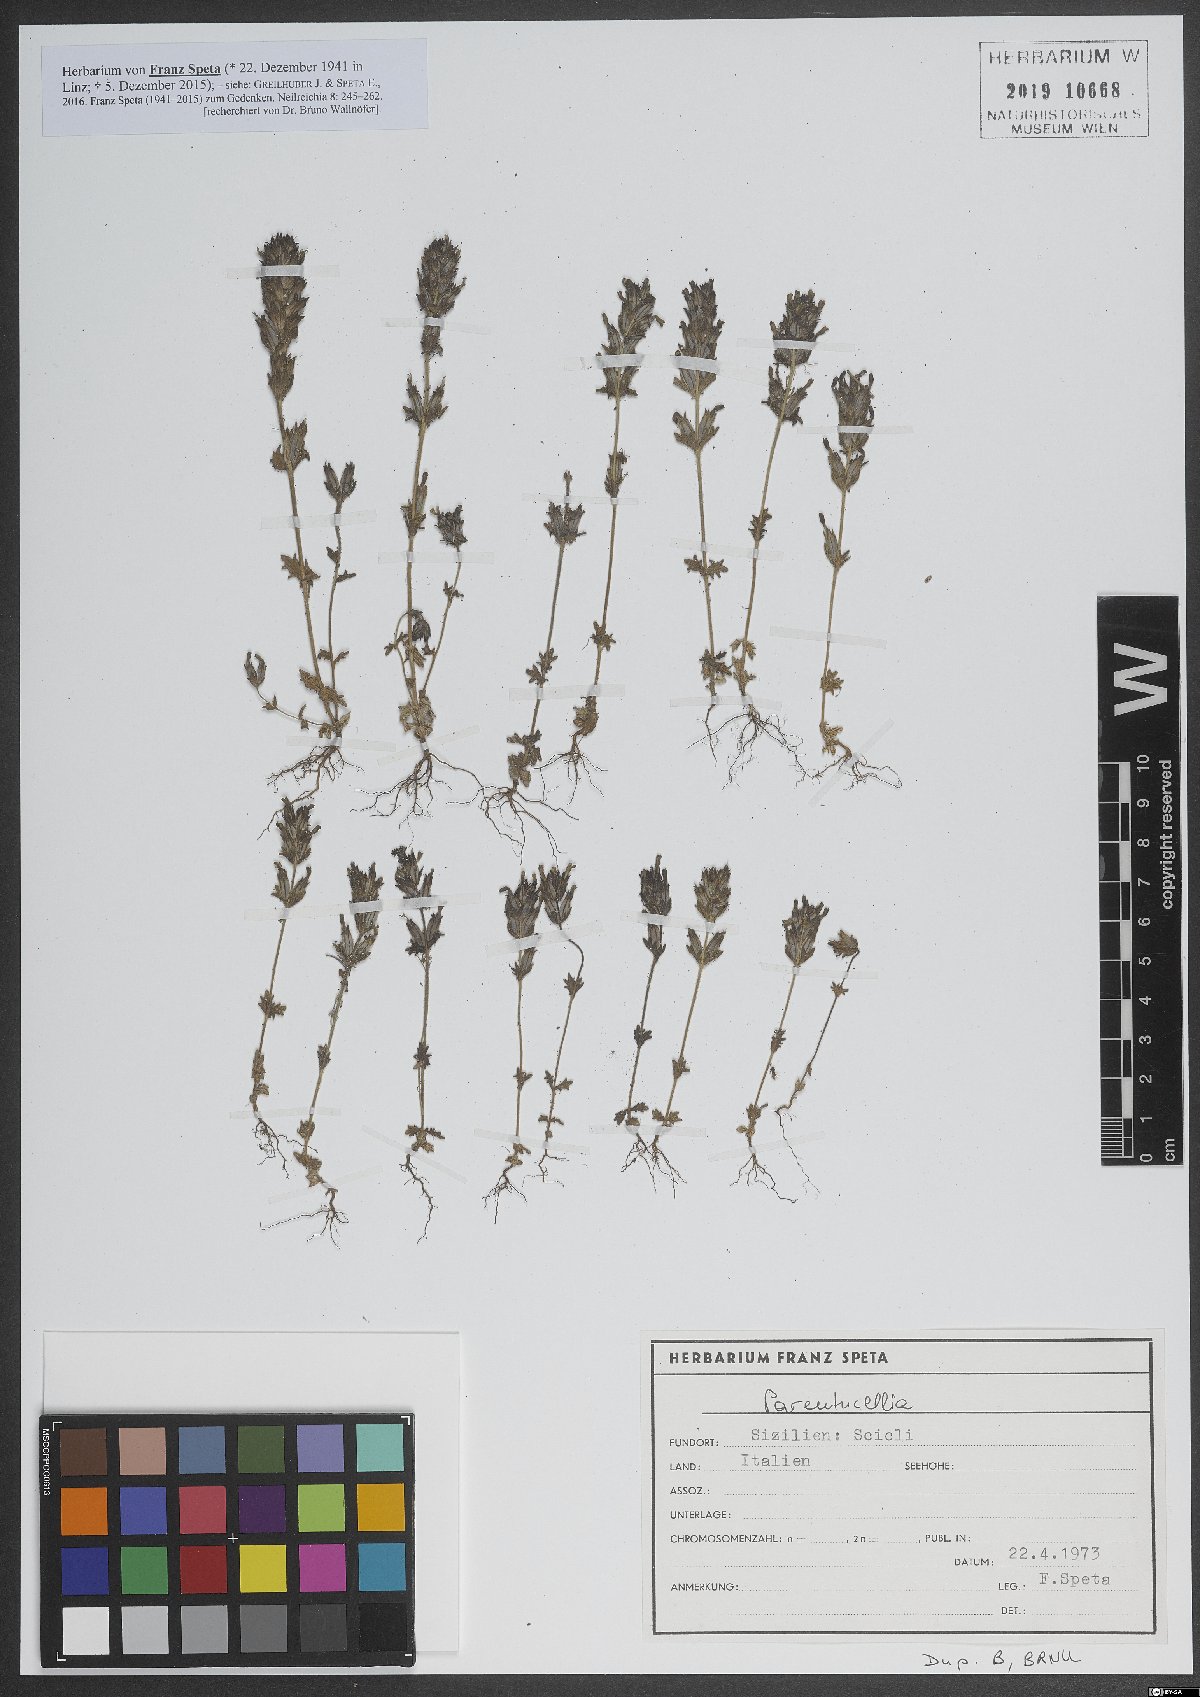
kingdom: Plantae
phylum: Tracheophyta
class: Magnoliopsida
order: Lamiales
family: Orobanchaceae
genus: Parentucellia
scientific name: Parentucellia
